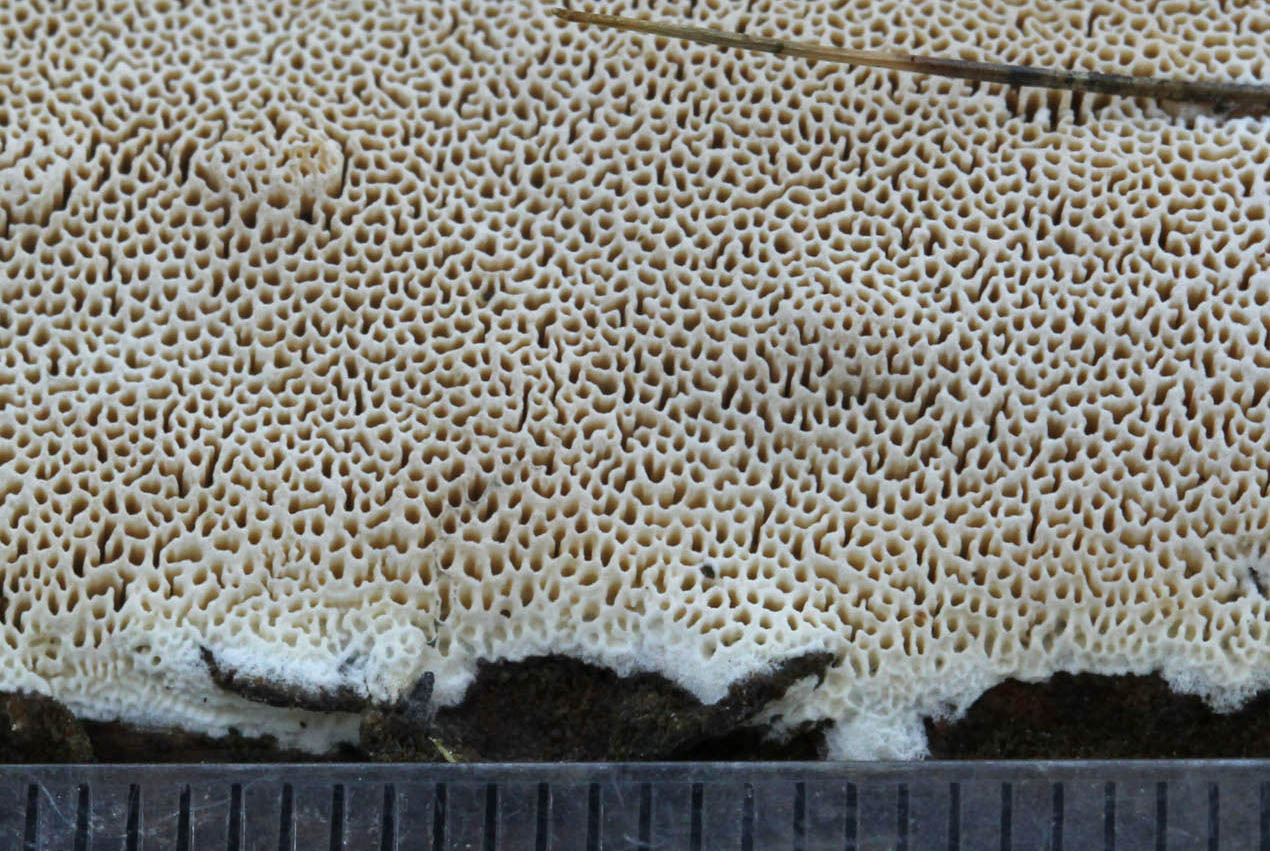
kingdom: Fungi
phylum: Basidiomycota
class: Agaricomycetes
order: Polyporales
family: Gelatoporiaceae
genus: Cinereomyces
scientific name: Cinereomyces lindbladii
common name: almindelig gråporesvamp
